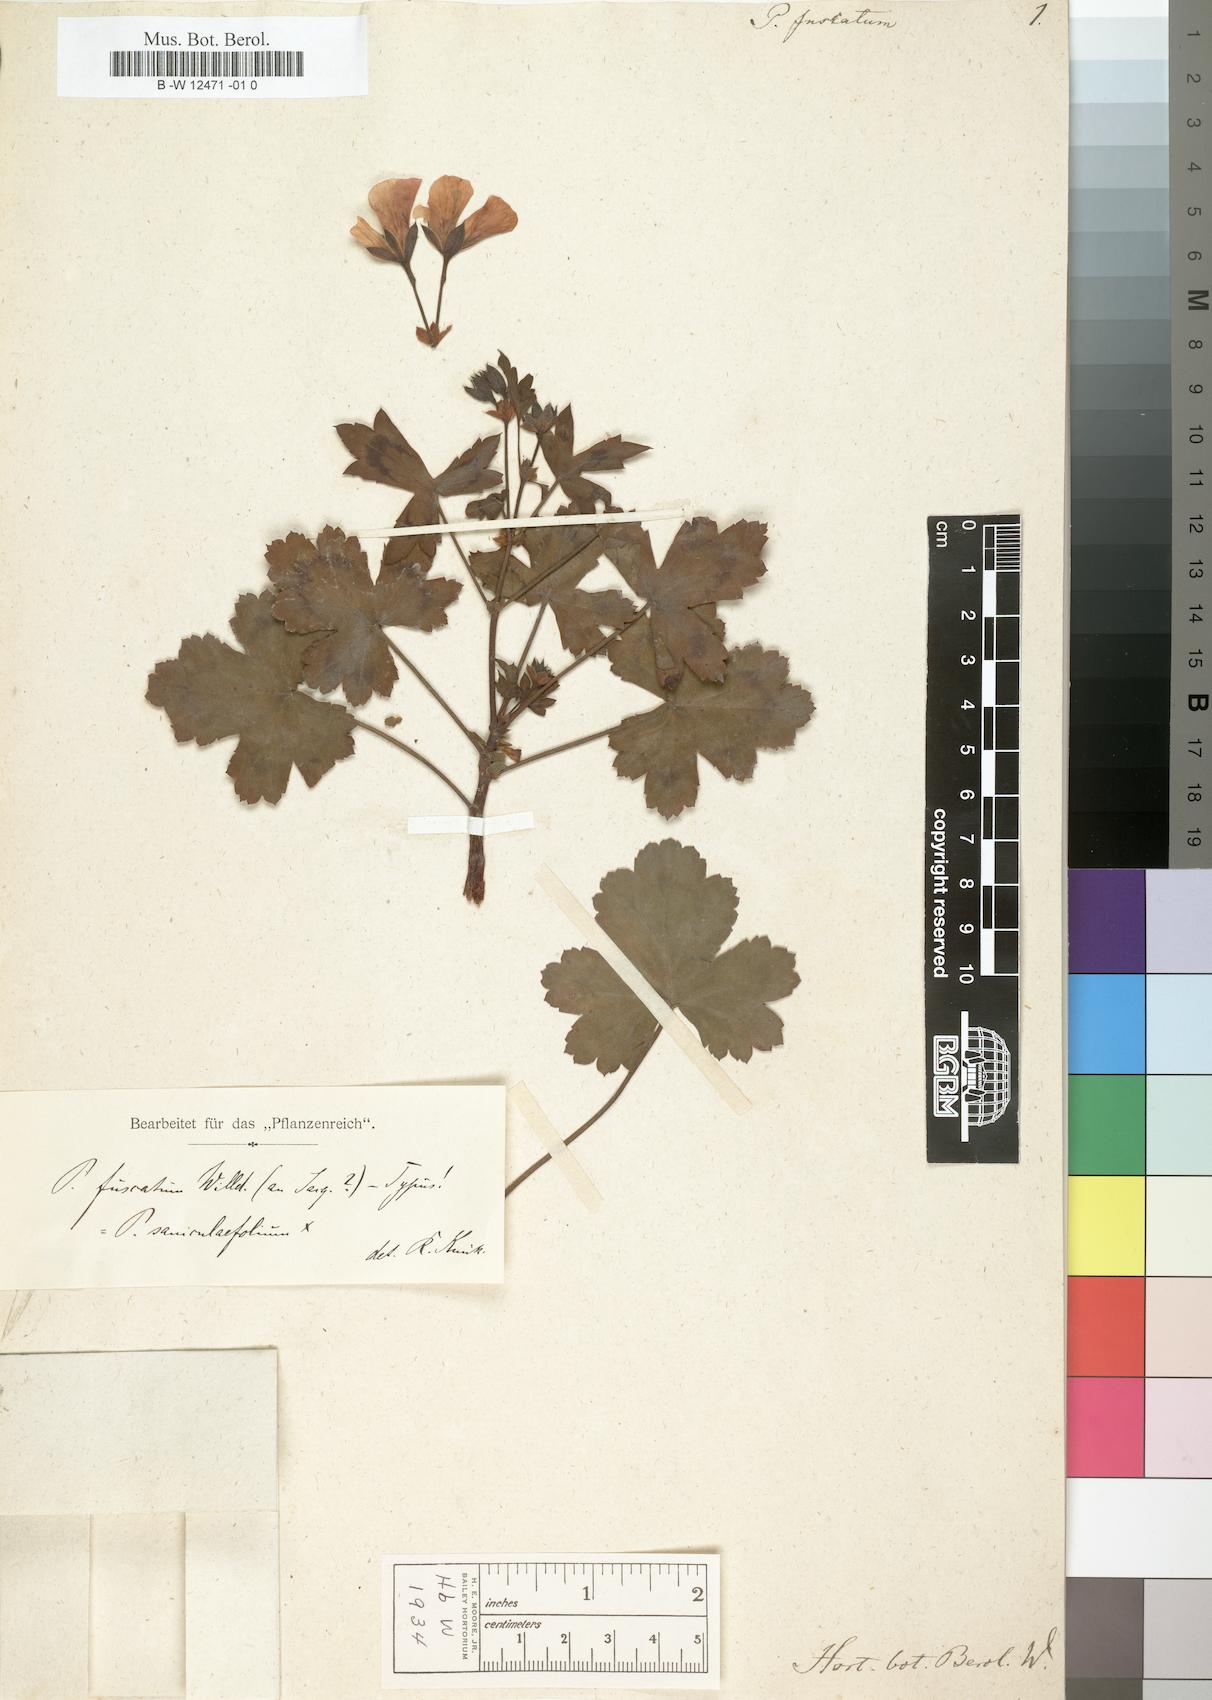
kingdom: Plantae
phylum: Tracheophyta
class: Magnoliopsida
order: Geraniales
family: Geraniaceae
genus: Pelargonium
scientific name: Pelargonium tabulare
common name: Table mountain pelargonium
